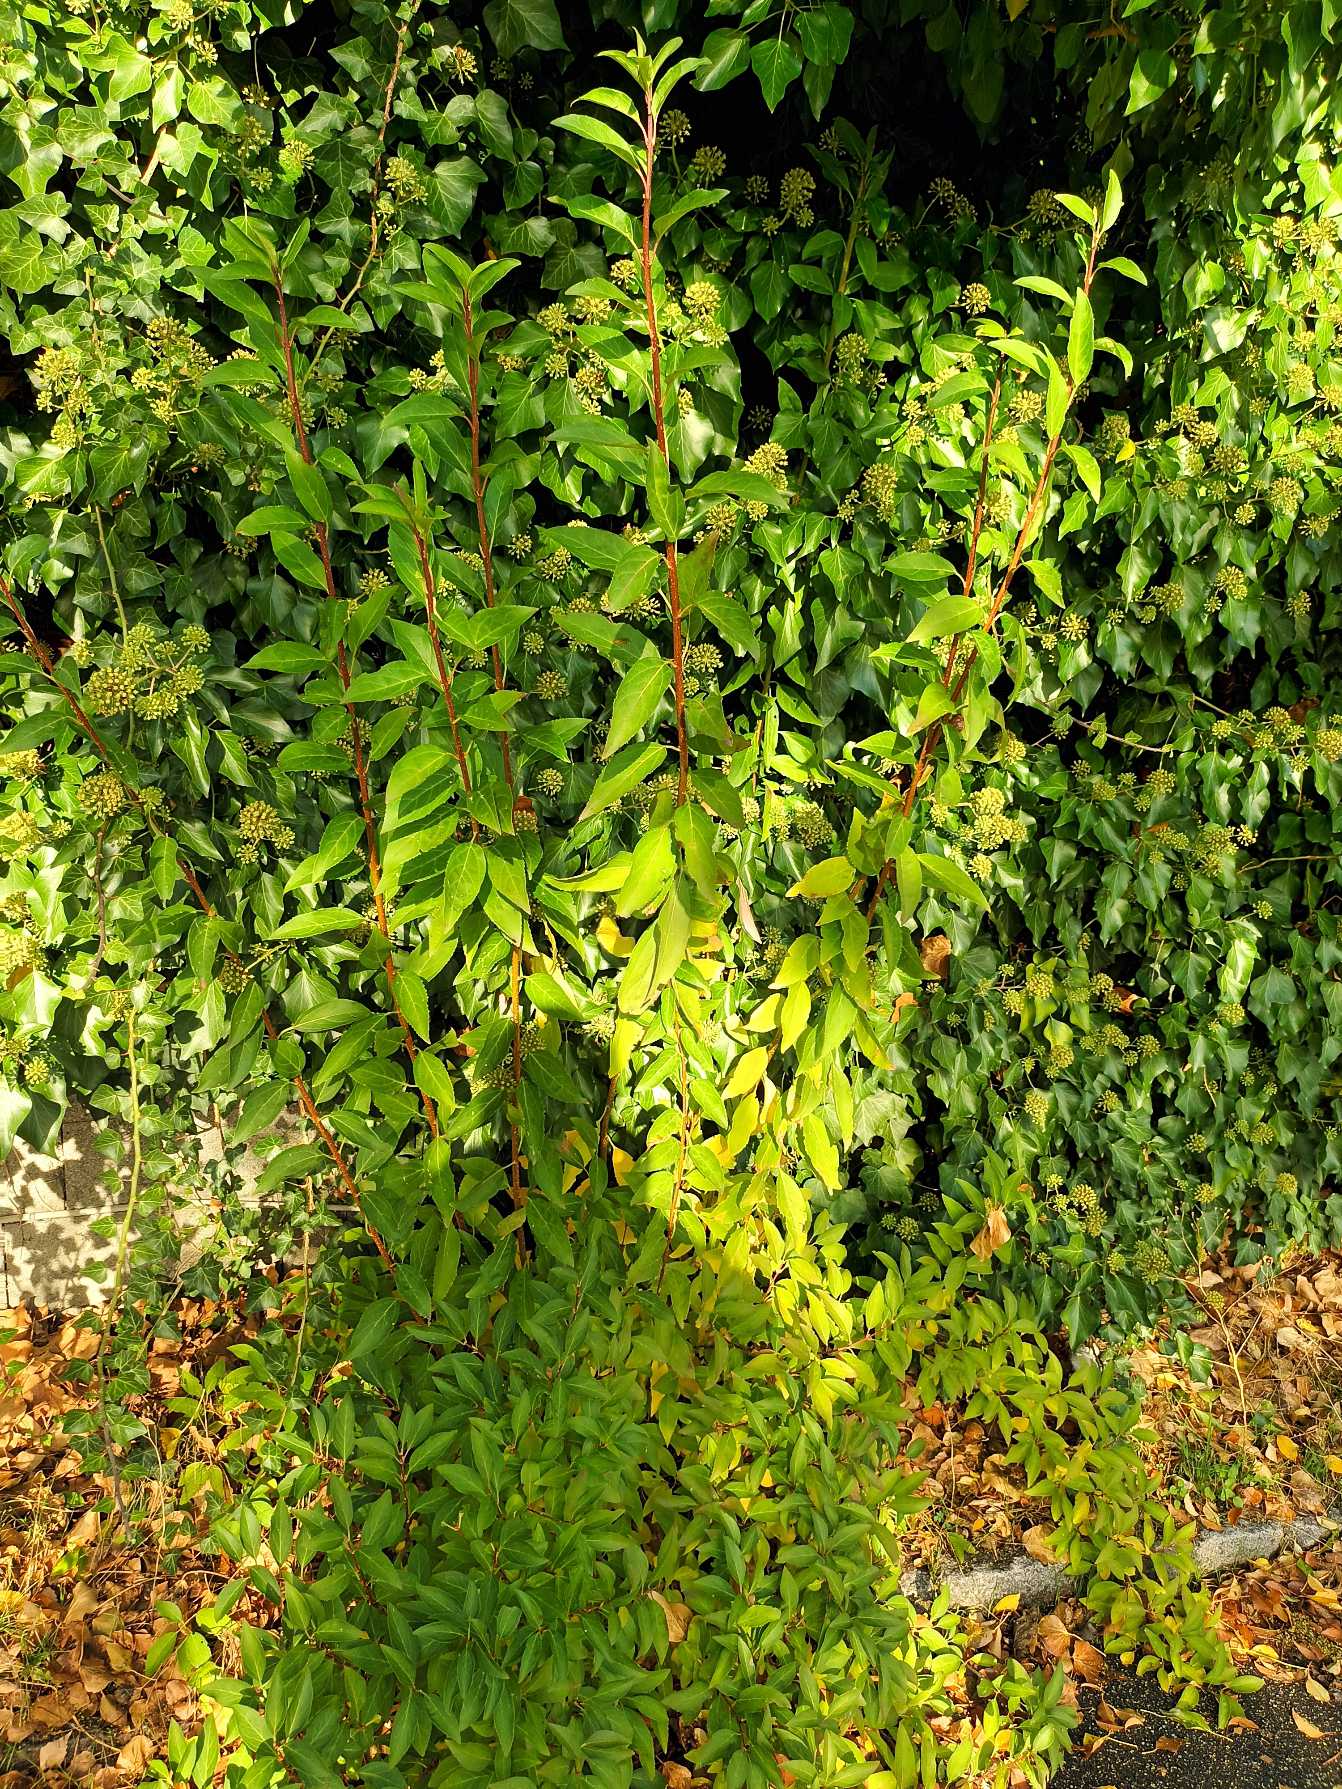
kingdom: Plantae
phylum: Tracheophyta
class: Magnoliopsida
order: Lamiales
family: Oleaceae
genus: Forsythia
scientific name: Forsythia intermedia
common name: Have-forsythia
